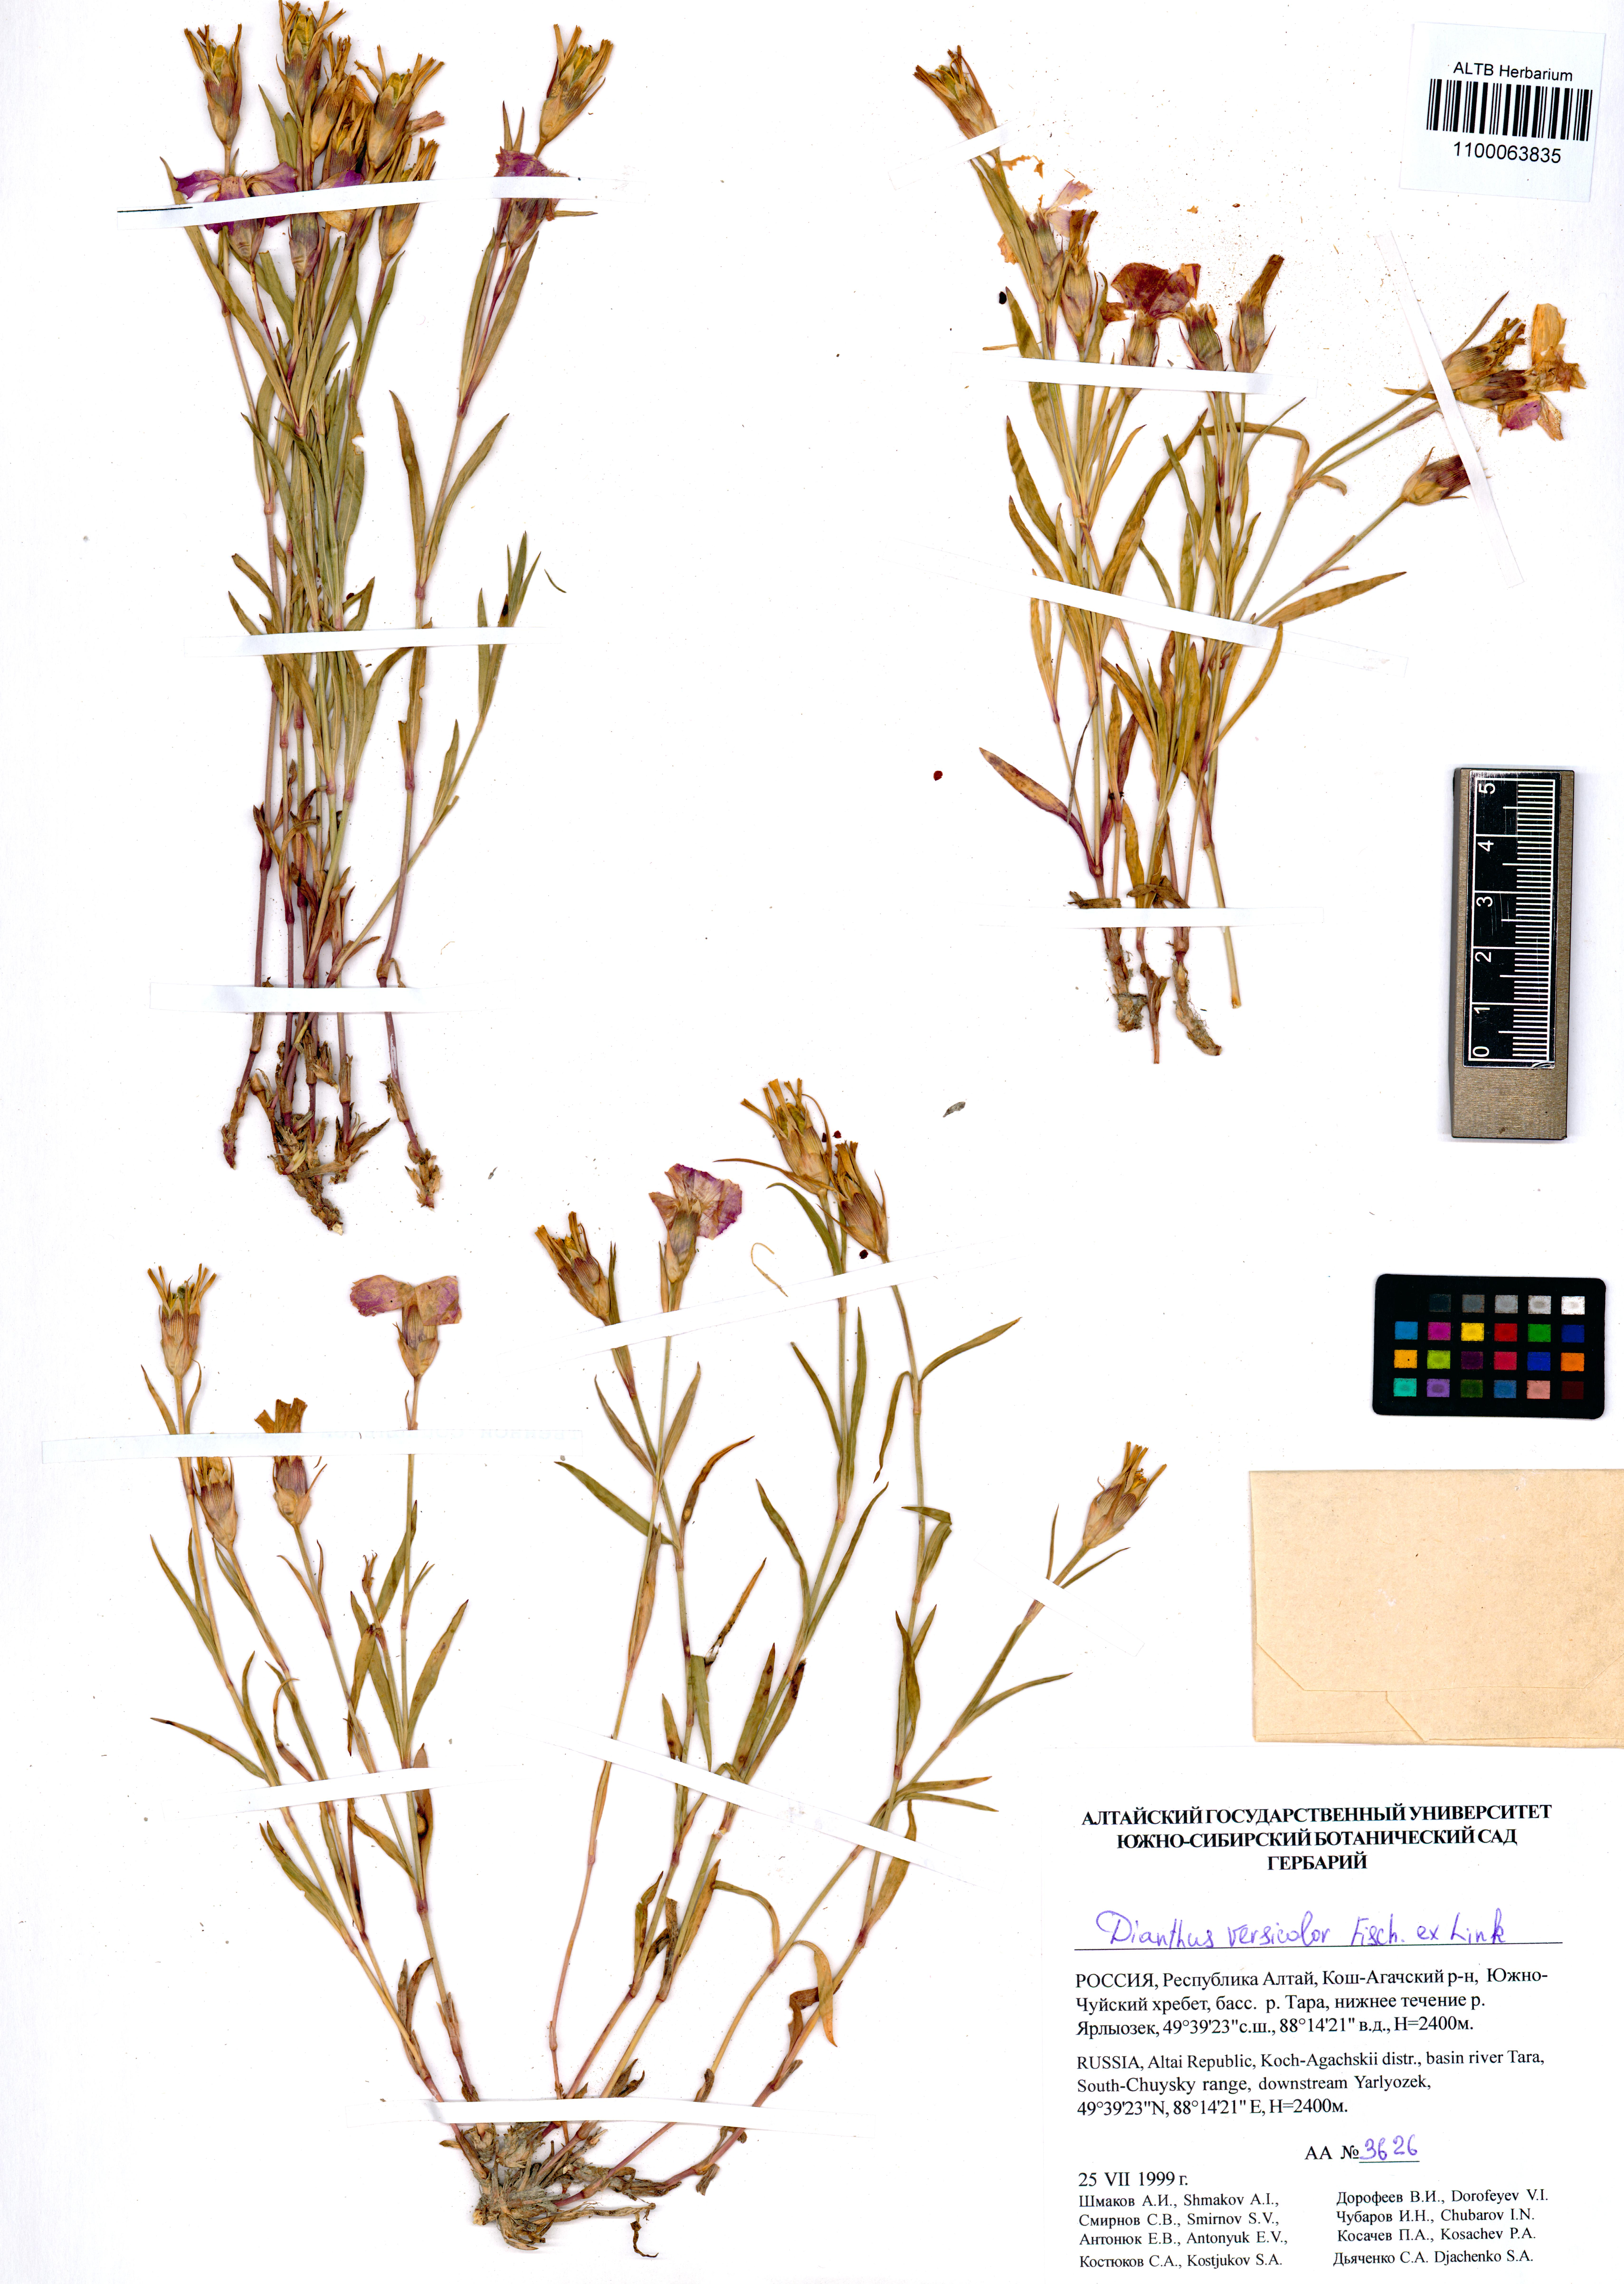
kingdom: Plantae
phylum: Tracheophyta
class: Magnoliopsida
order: Caryophyllales
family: Caryophyllaceae
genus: Dianthus
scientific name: Dianthus chinensis
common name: Rainbow pink
